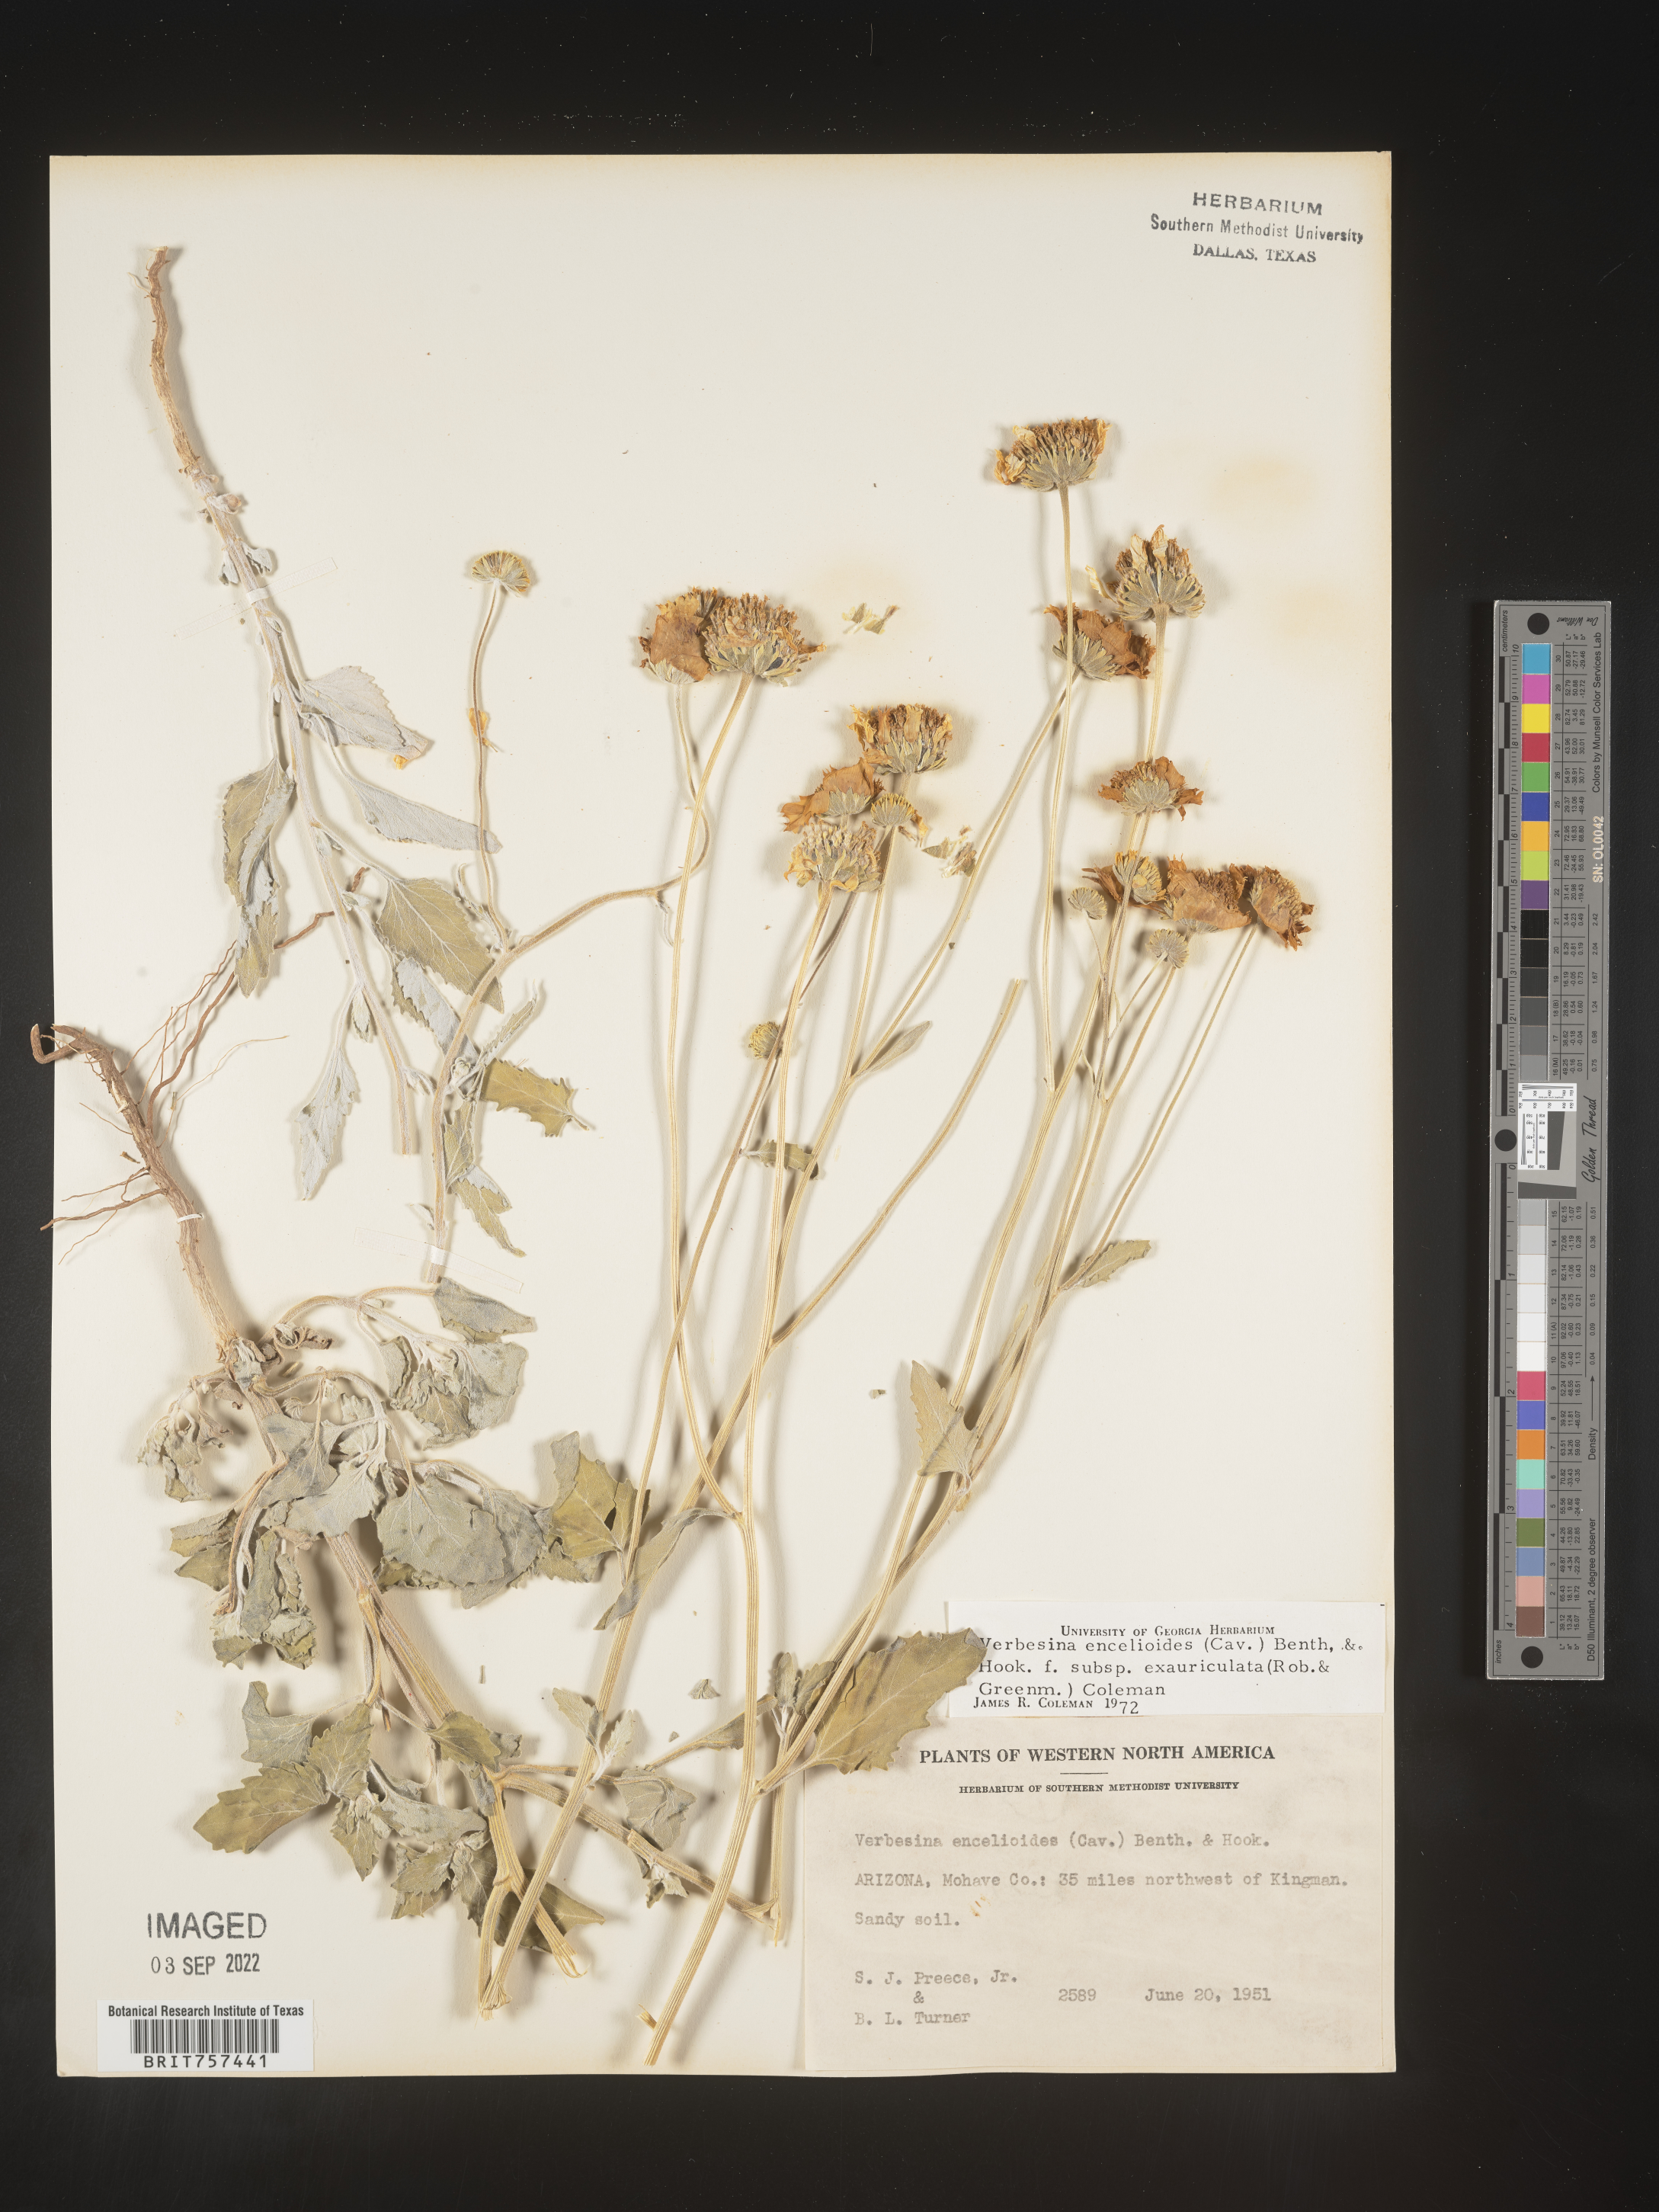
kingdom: Plantae
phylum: Tracheophyta
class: Magnoliopsida
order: Asterales
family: Asteraceae
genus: Verbesina
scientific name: Verbesina encelioides
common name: Golden crownbeard
